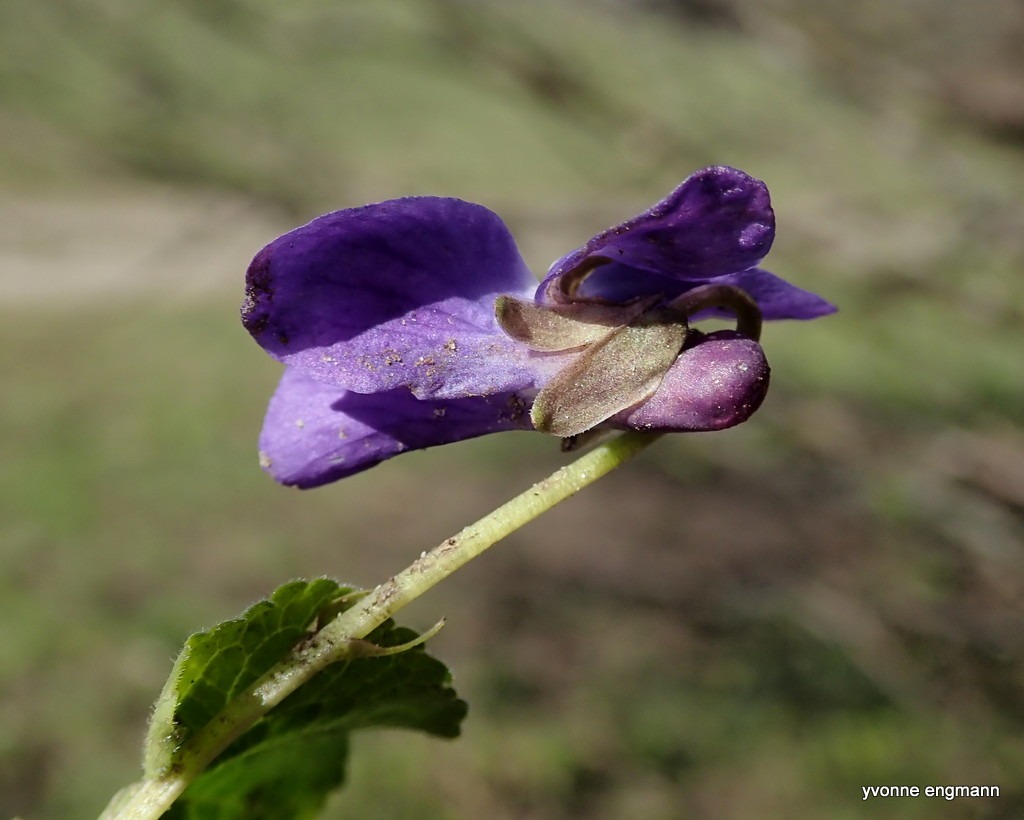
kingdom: Plantae
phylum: Tracheophyta
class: Magnoliopsida
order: Malpighiales
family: Violaceae
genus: Viola
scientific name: Viola odorata
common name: Marts-viol
